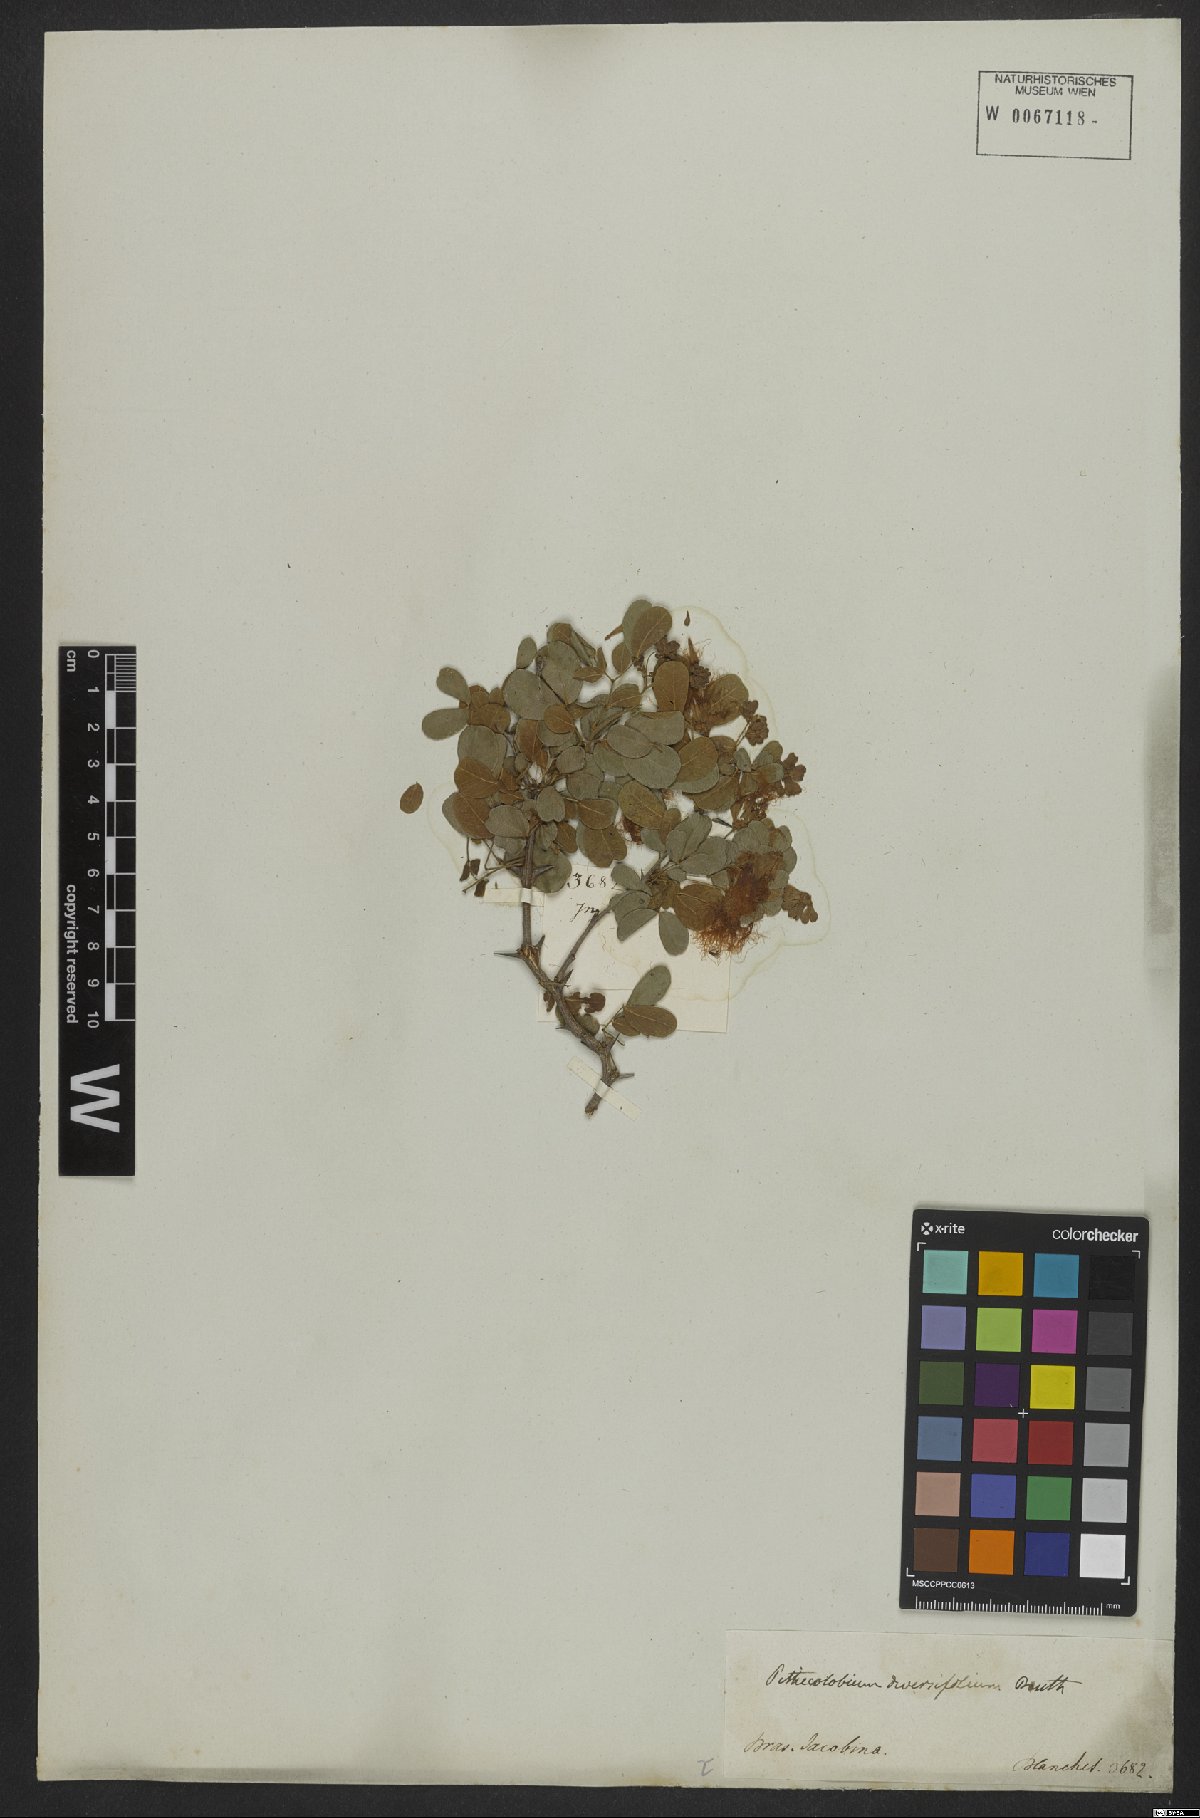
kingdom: Plantae
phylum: Tracheophyta
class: Magnoliopsida
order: Fabales
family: Fabaceae
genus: Pithecellobium
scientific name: Pithecellobium diversifolium
